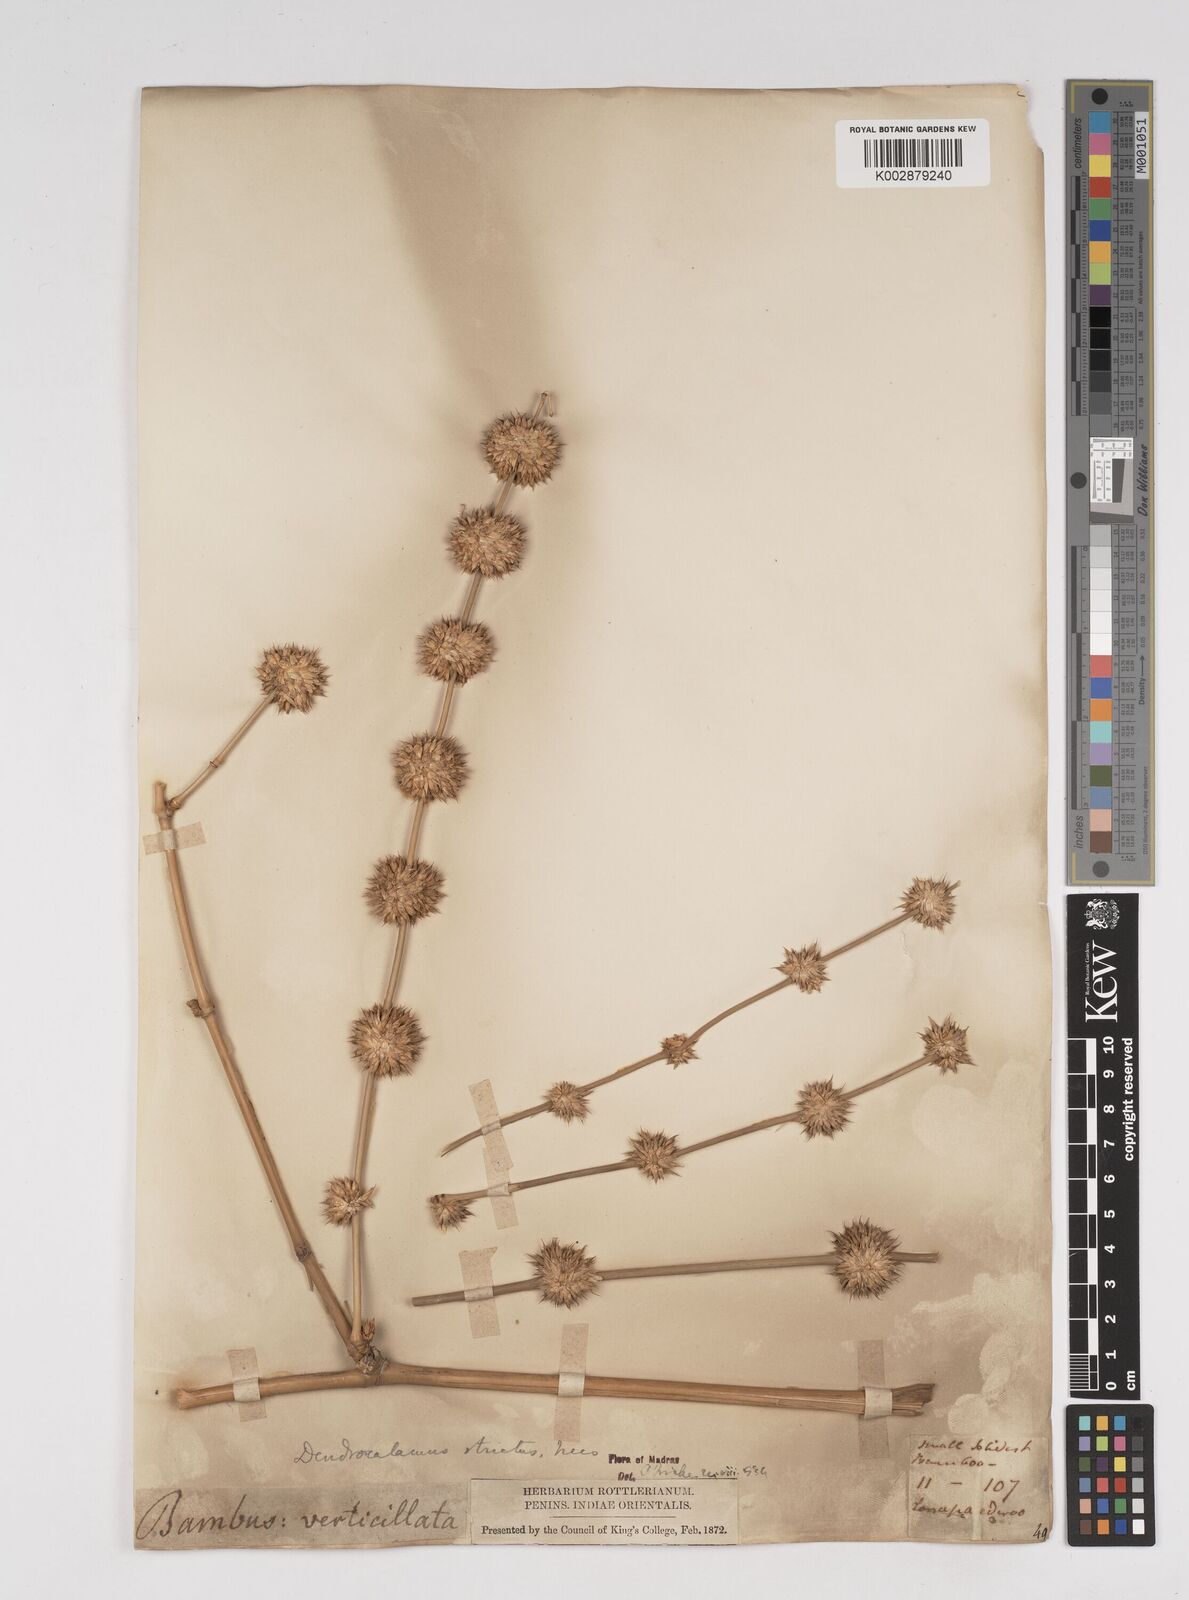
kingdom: Plantae
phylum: Tracheophyta
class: Liliopsida
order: Poales
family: Poaceae
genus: Dendrocalamus
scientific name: Dendrocalamus strictus
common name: Male bamboo
